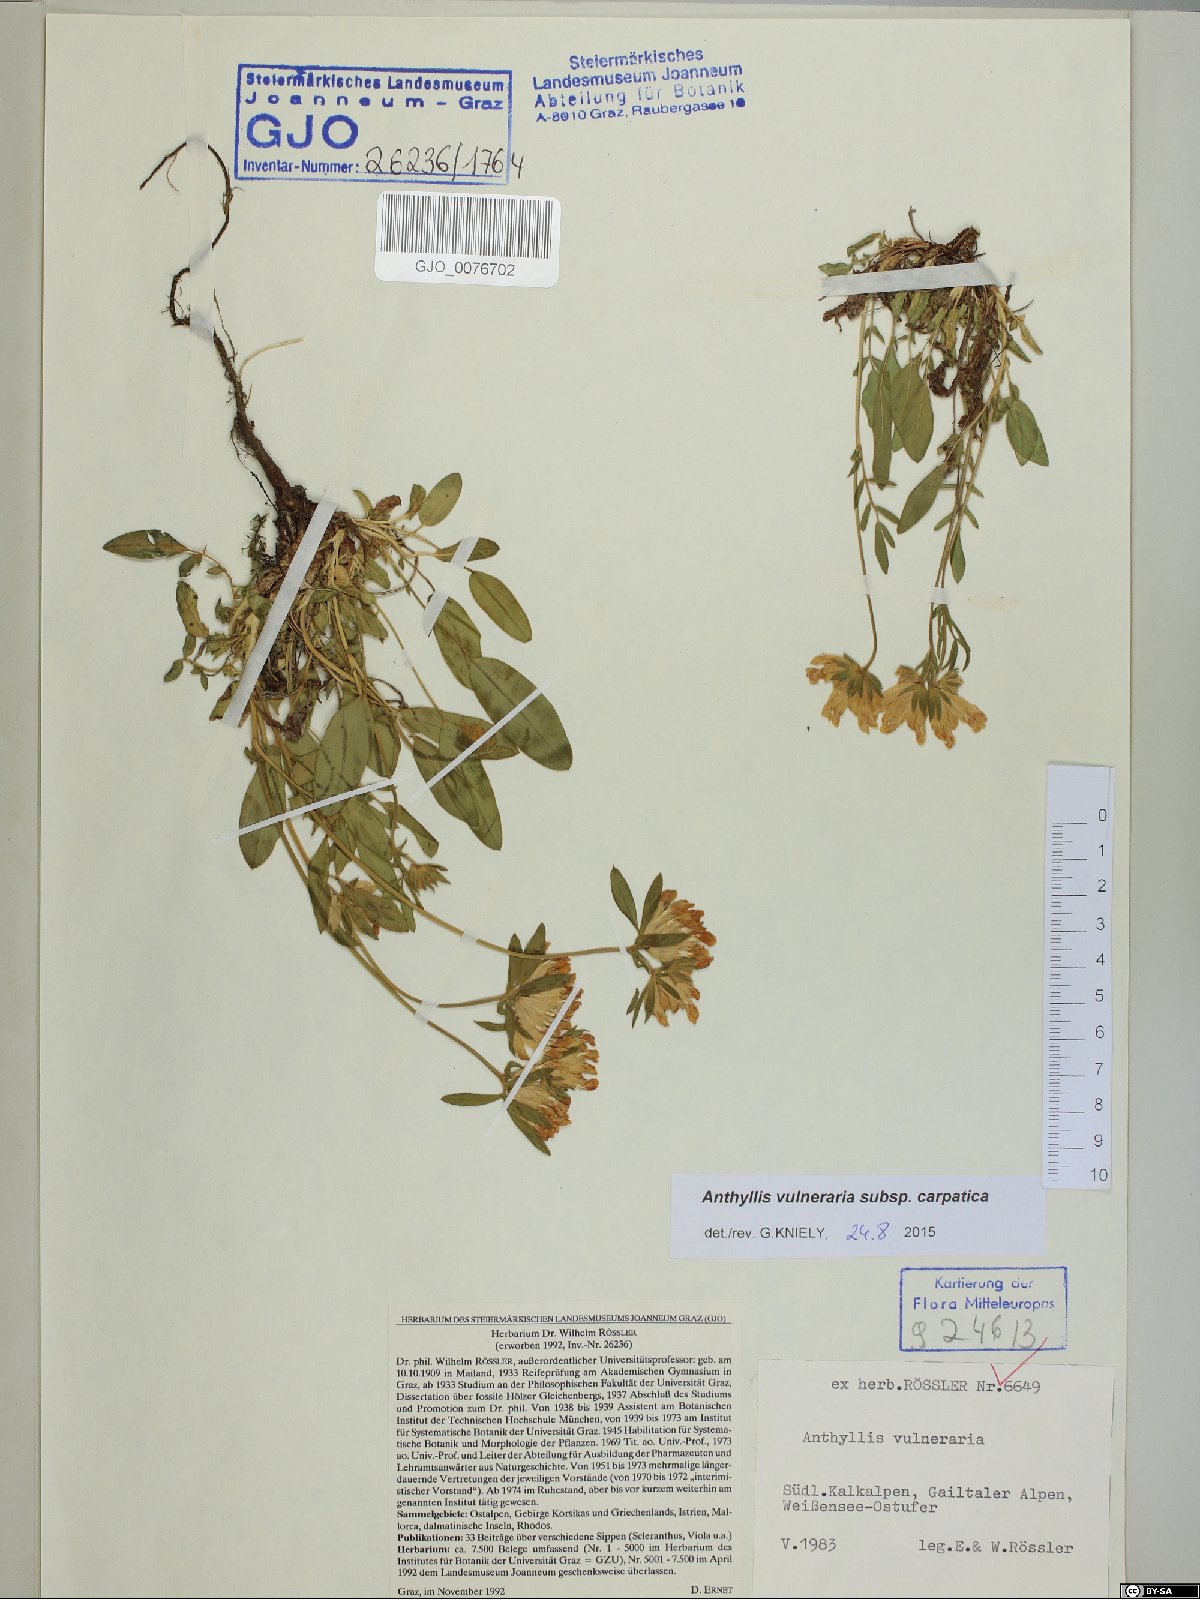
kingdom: Plantae
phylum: Tracheophyta
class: Magnoliopsida
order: Fabales
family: Fabaceae
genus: Anthyllis
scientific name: Anthyllis vulneraria
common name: Kidney vetch
